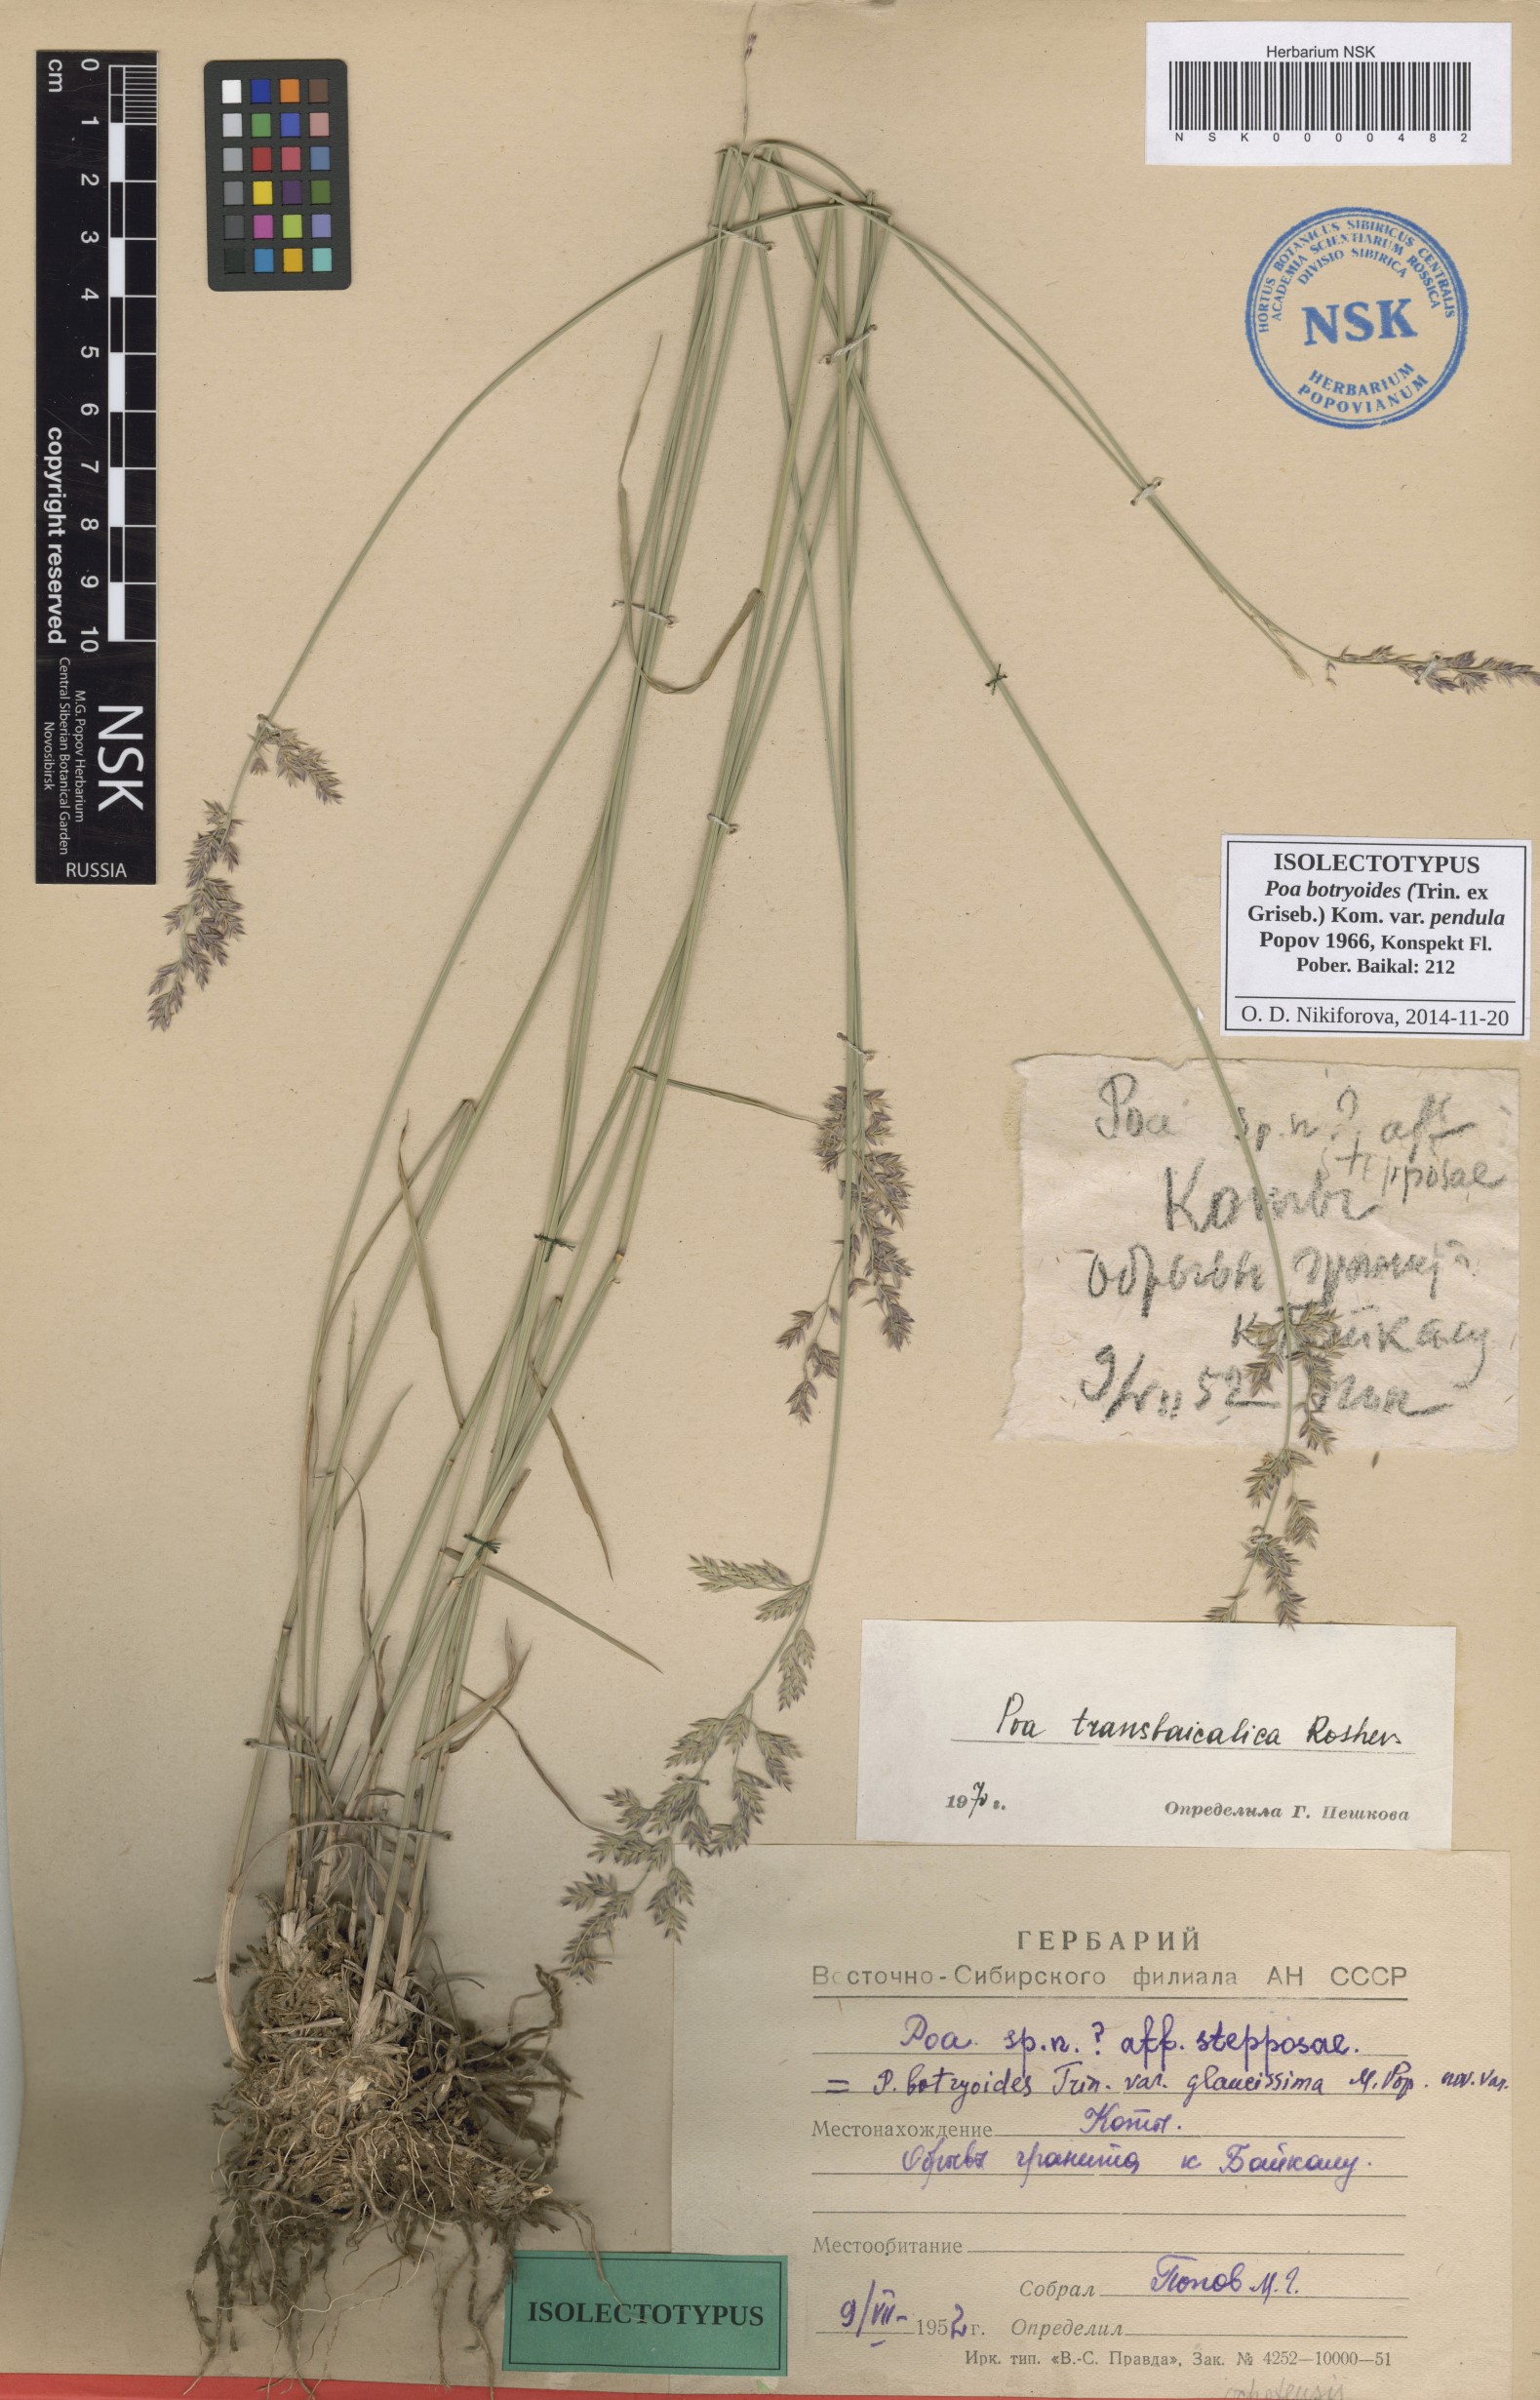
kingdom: Plantae
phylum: Tracheophyta
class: Liliopsida
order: Poales
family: Poaceae
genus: Poa
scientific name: Poa attenuata
